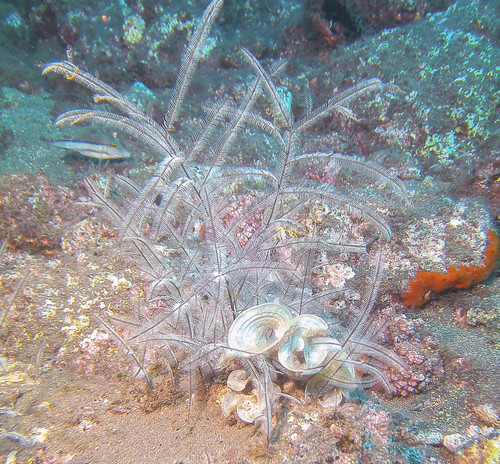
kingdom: Chromista
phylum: Ochrophyta
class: Phaeophyceae
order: Dictyotales
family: Dictyotaceae
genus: Padina
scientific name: Padina pavonica
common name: Turkey feather alga
